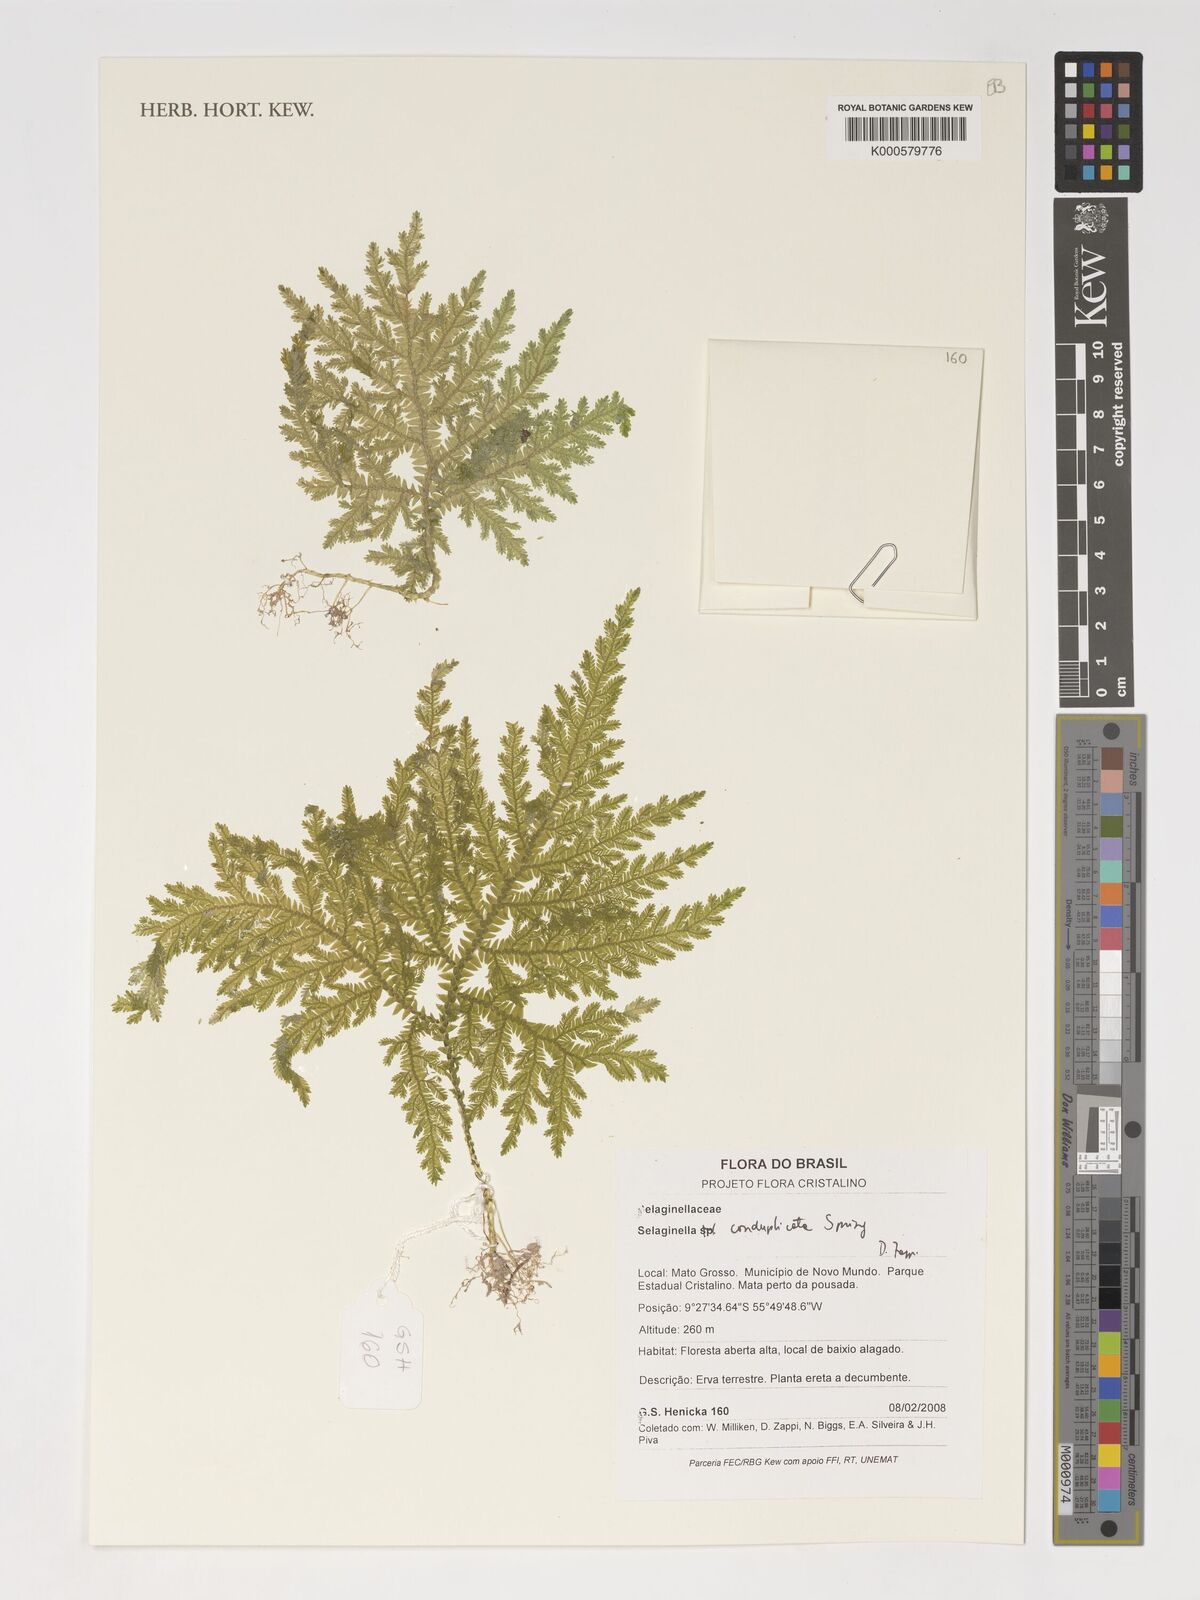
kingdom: Plantae
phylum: Tracheophyta
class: Lycopodiopsida
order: Selaginellales
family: Selaginellaceae
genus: Selaginella
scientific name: Selaginella conduplicata
